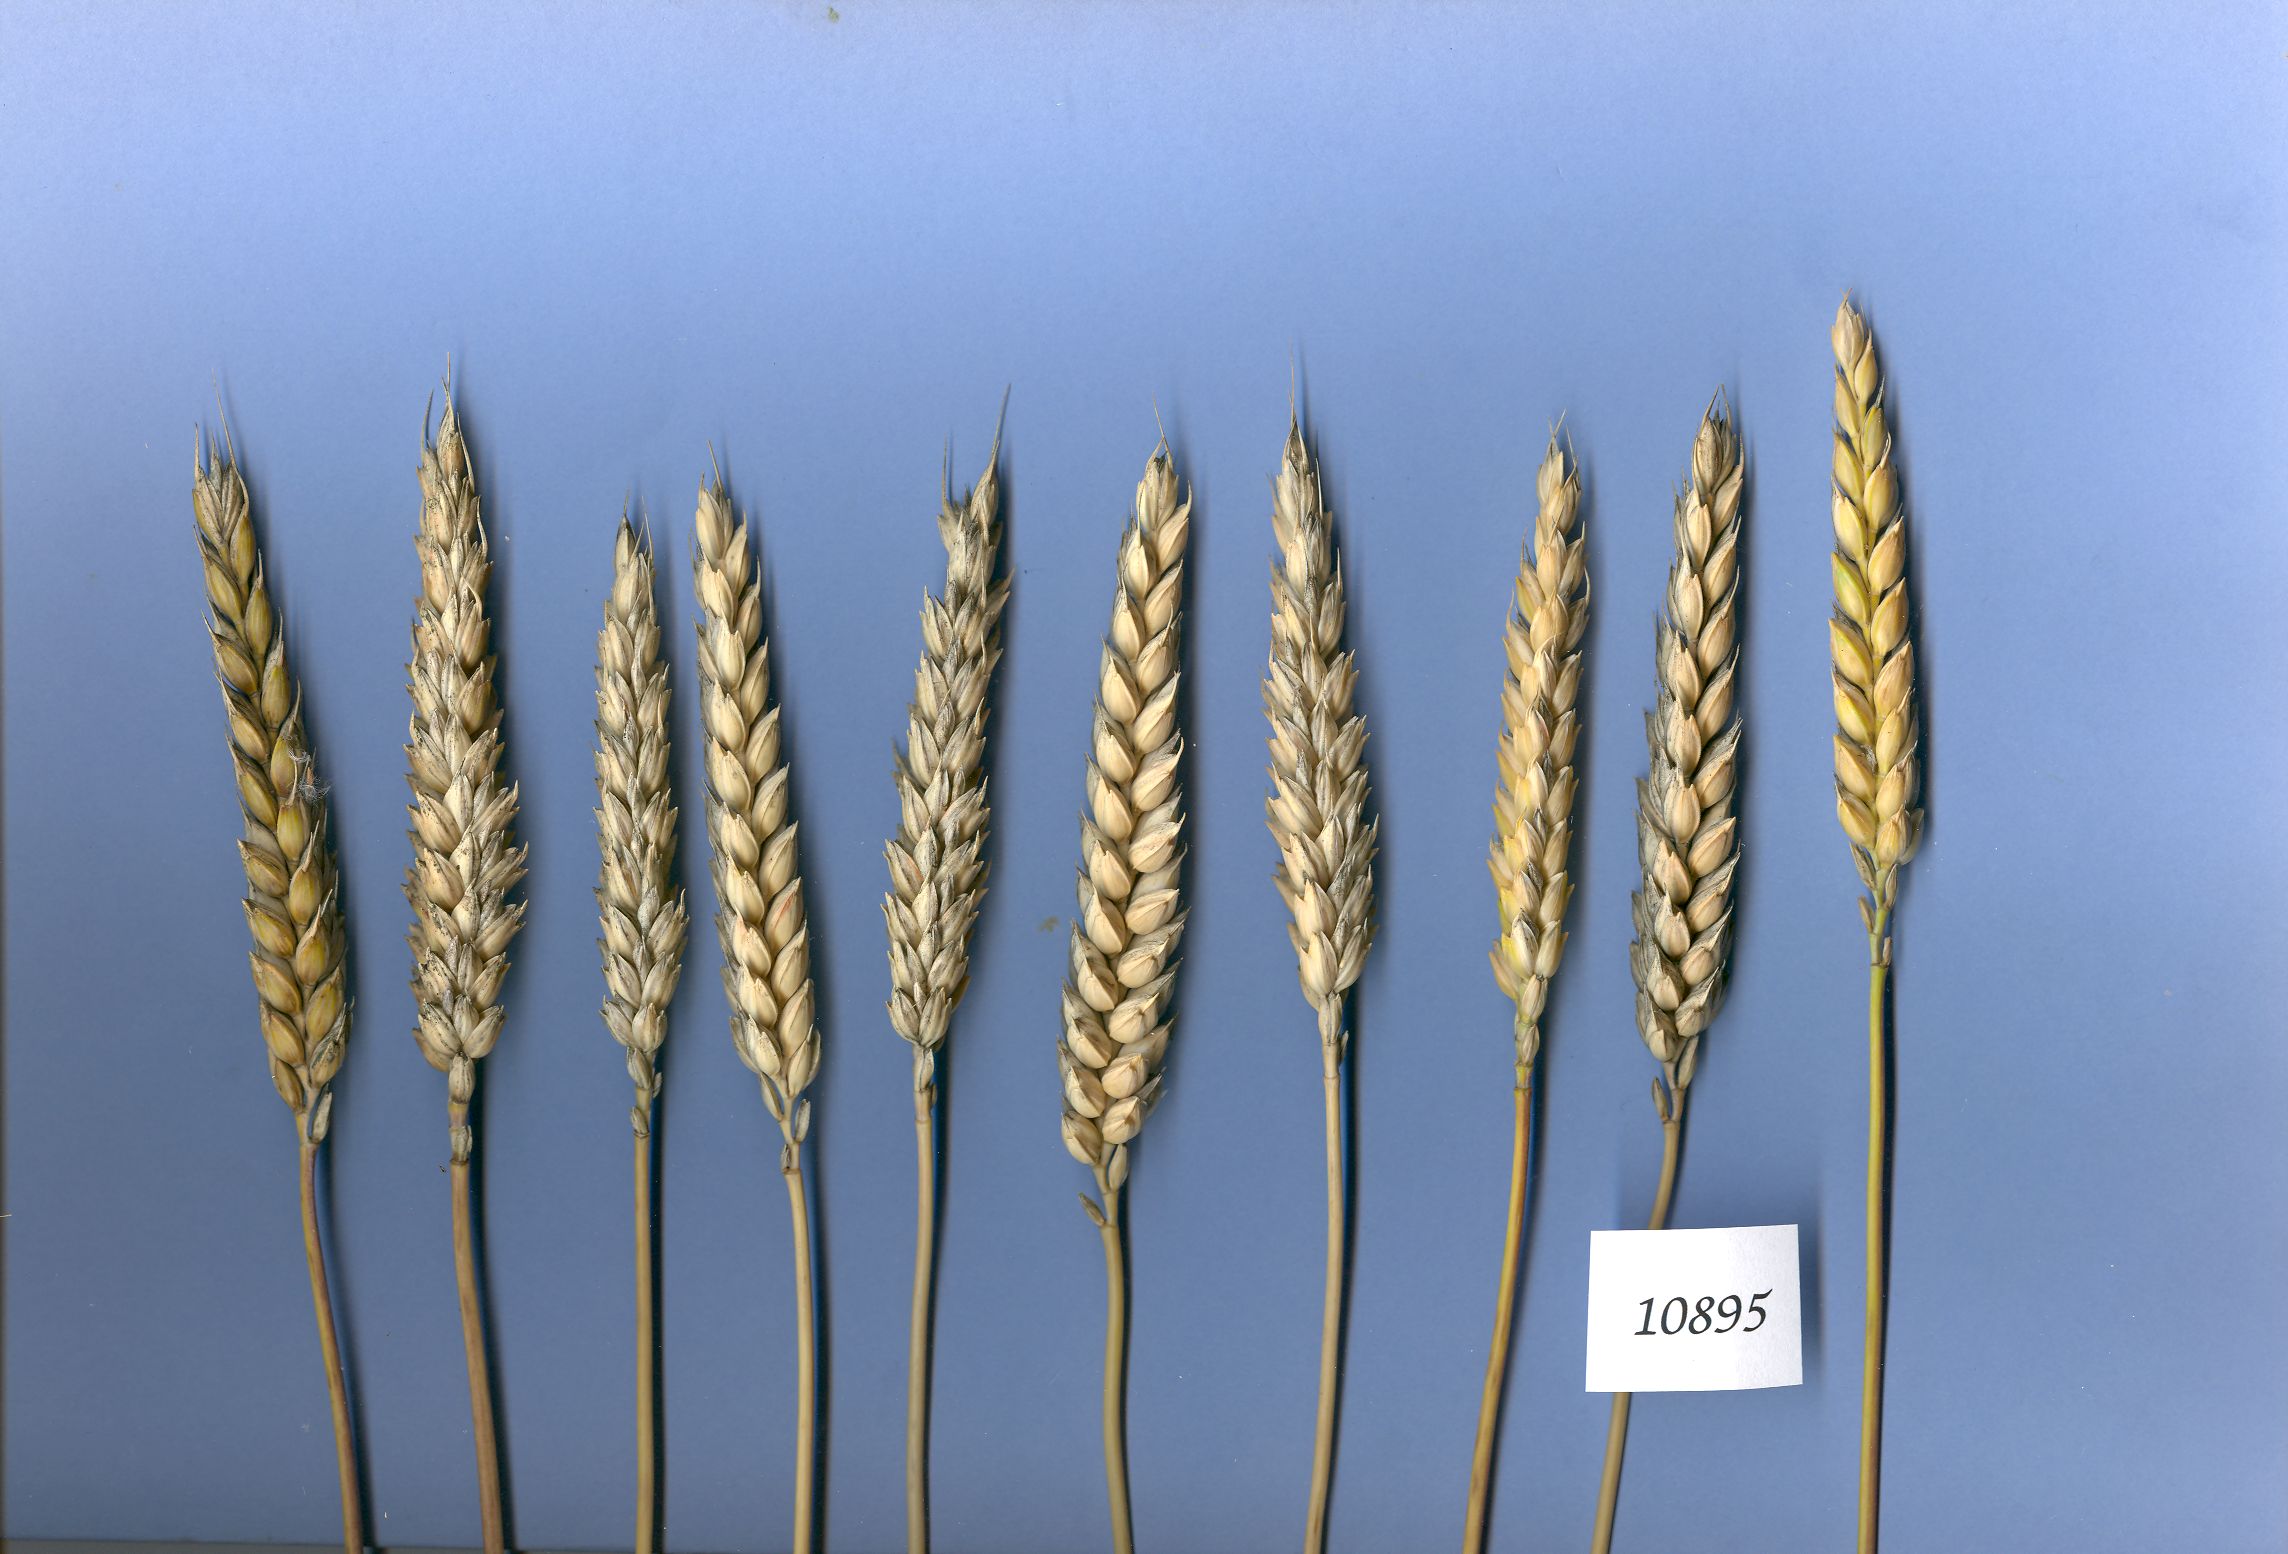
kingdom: Plantae
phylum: Tracheophyta
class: Liliopsida
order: Poales
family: Poaceae
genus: Triticum
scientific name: Triticum aestivum
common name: Common wheat
